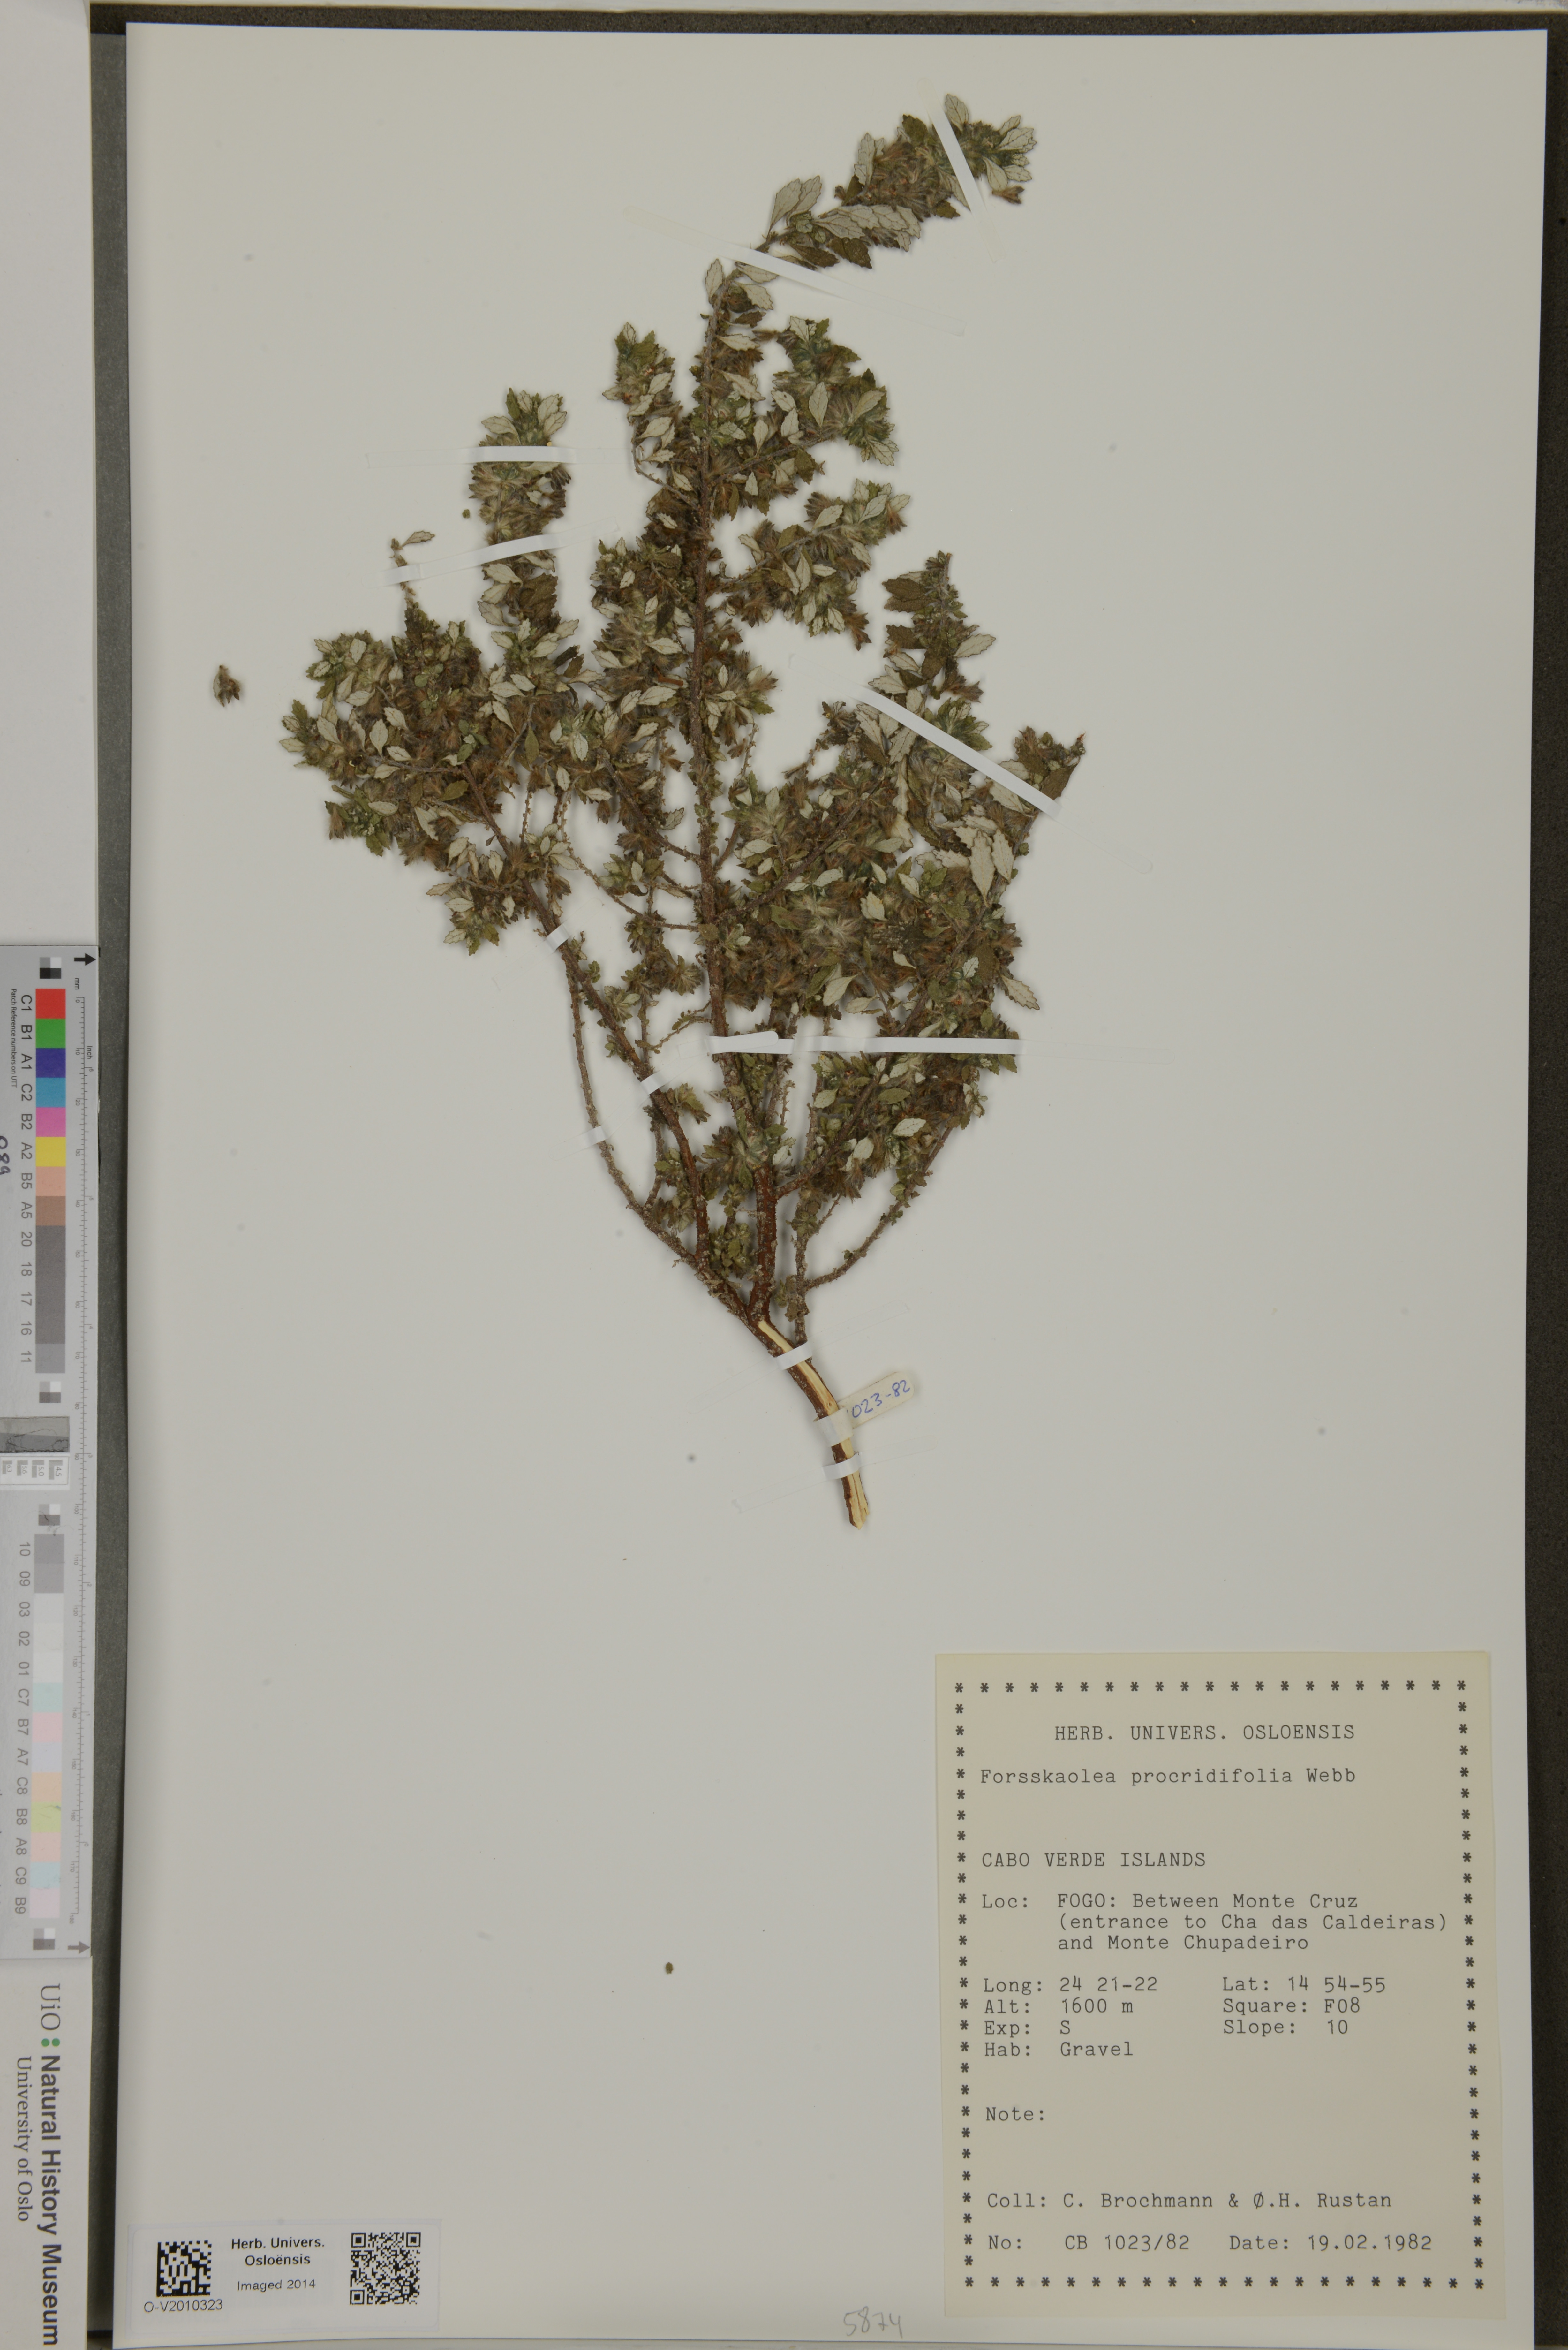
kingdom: Plantae
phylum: Tracheophyta
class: Magnoliopsida
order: Rosales
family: Urticaceae
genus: Forsskaolea
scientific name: Forsskaolea procridifolia
